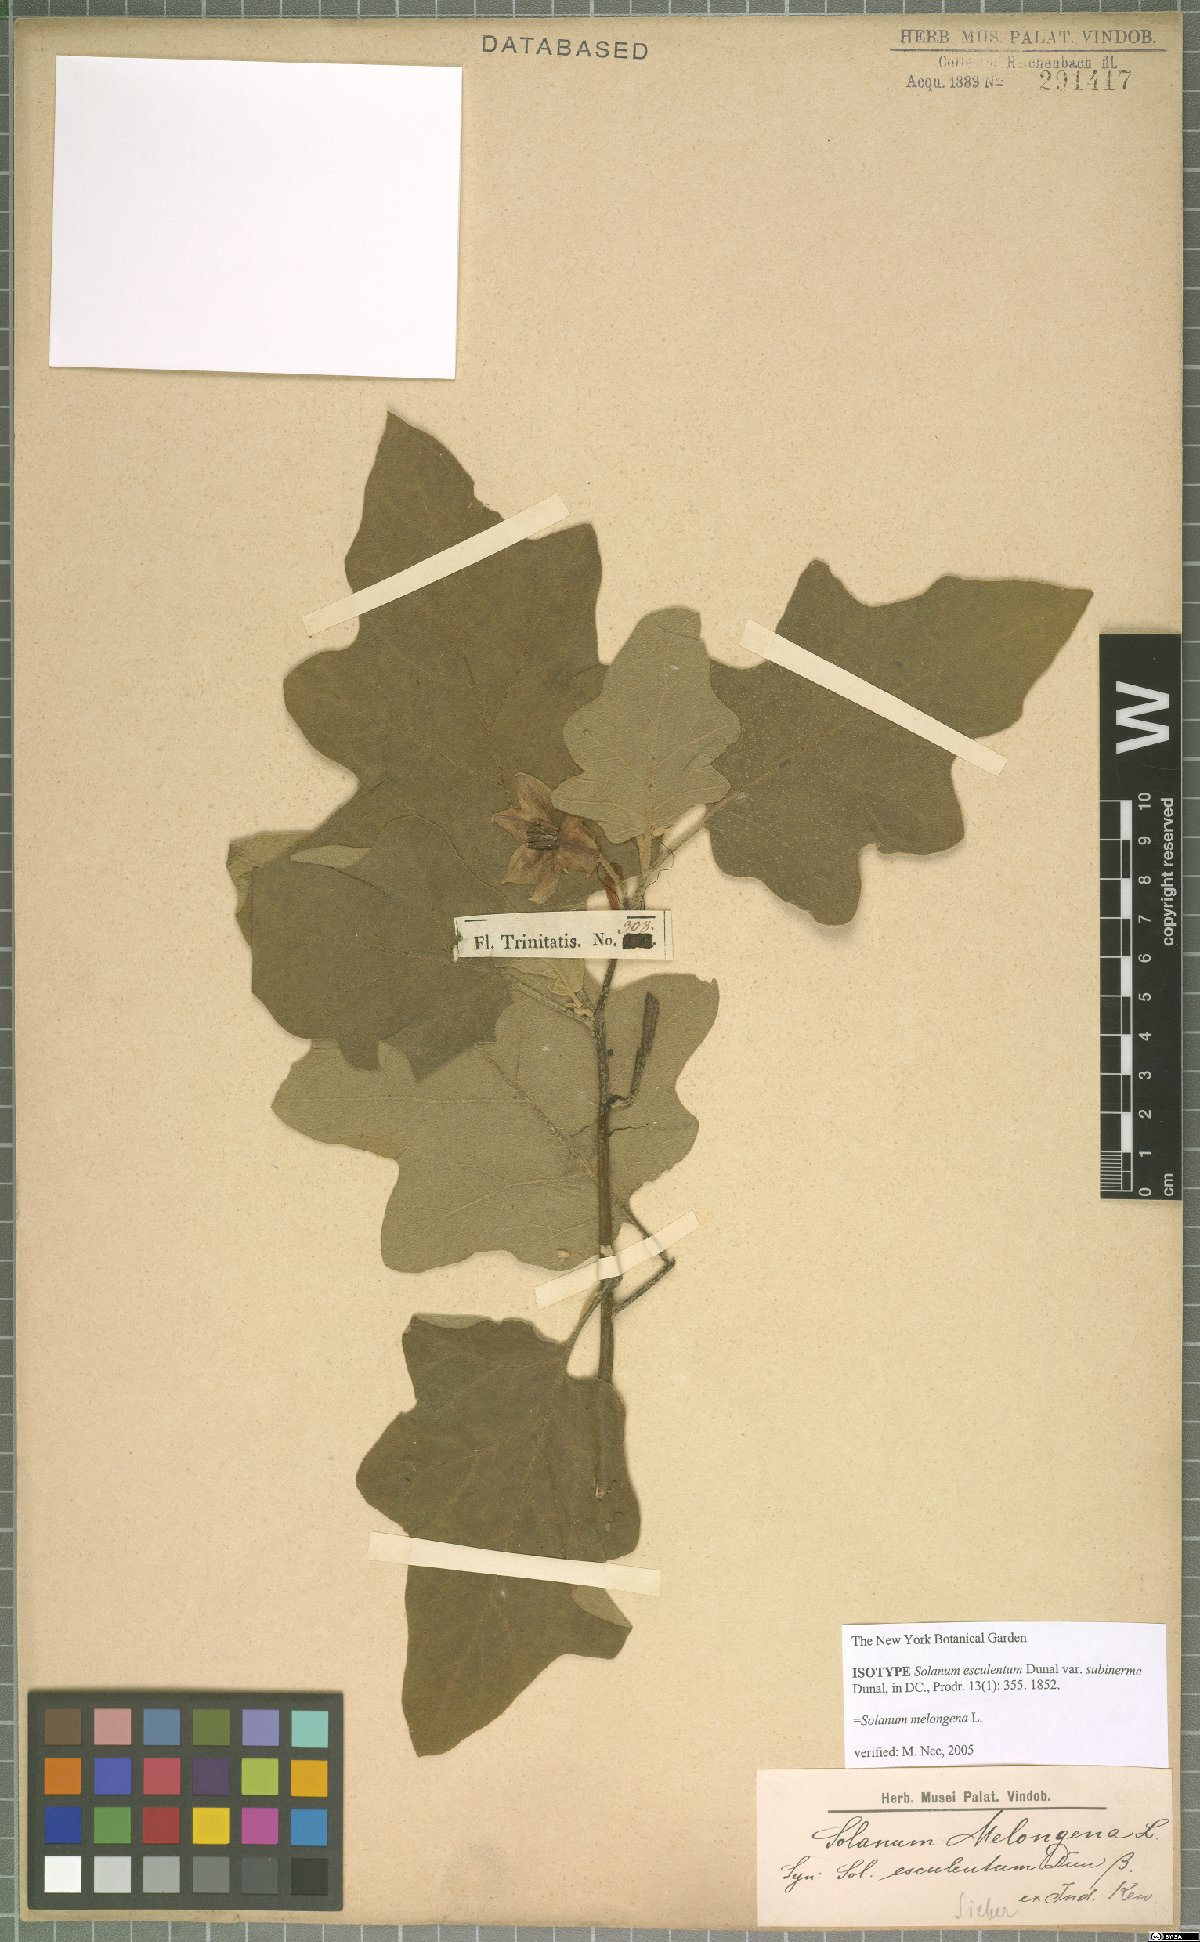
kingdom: Plantae
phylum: Tracheophyta
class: Magnoliopsida
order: Solanales
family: Solanaceae
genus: Solanum
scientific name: Solanum melongena
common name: Eggplant
